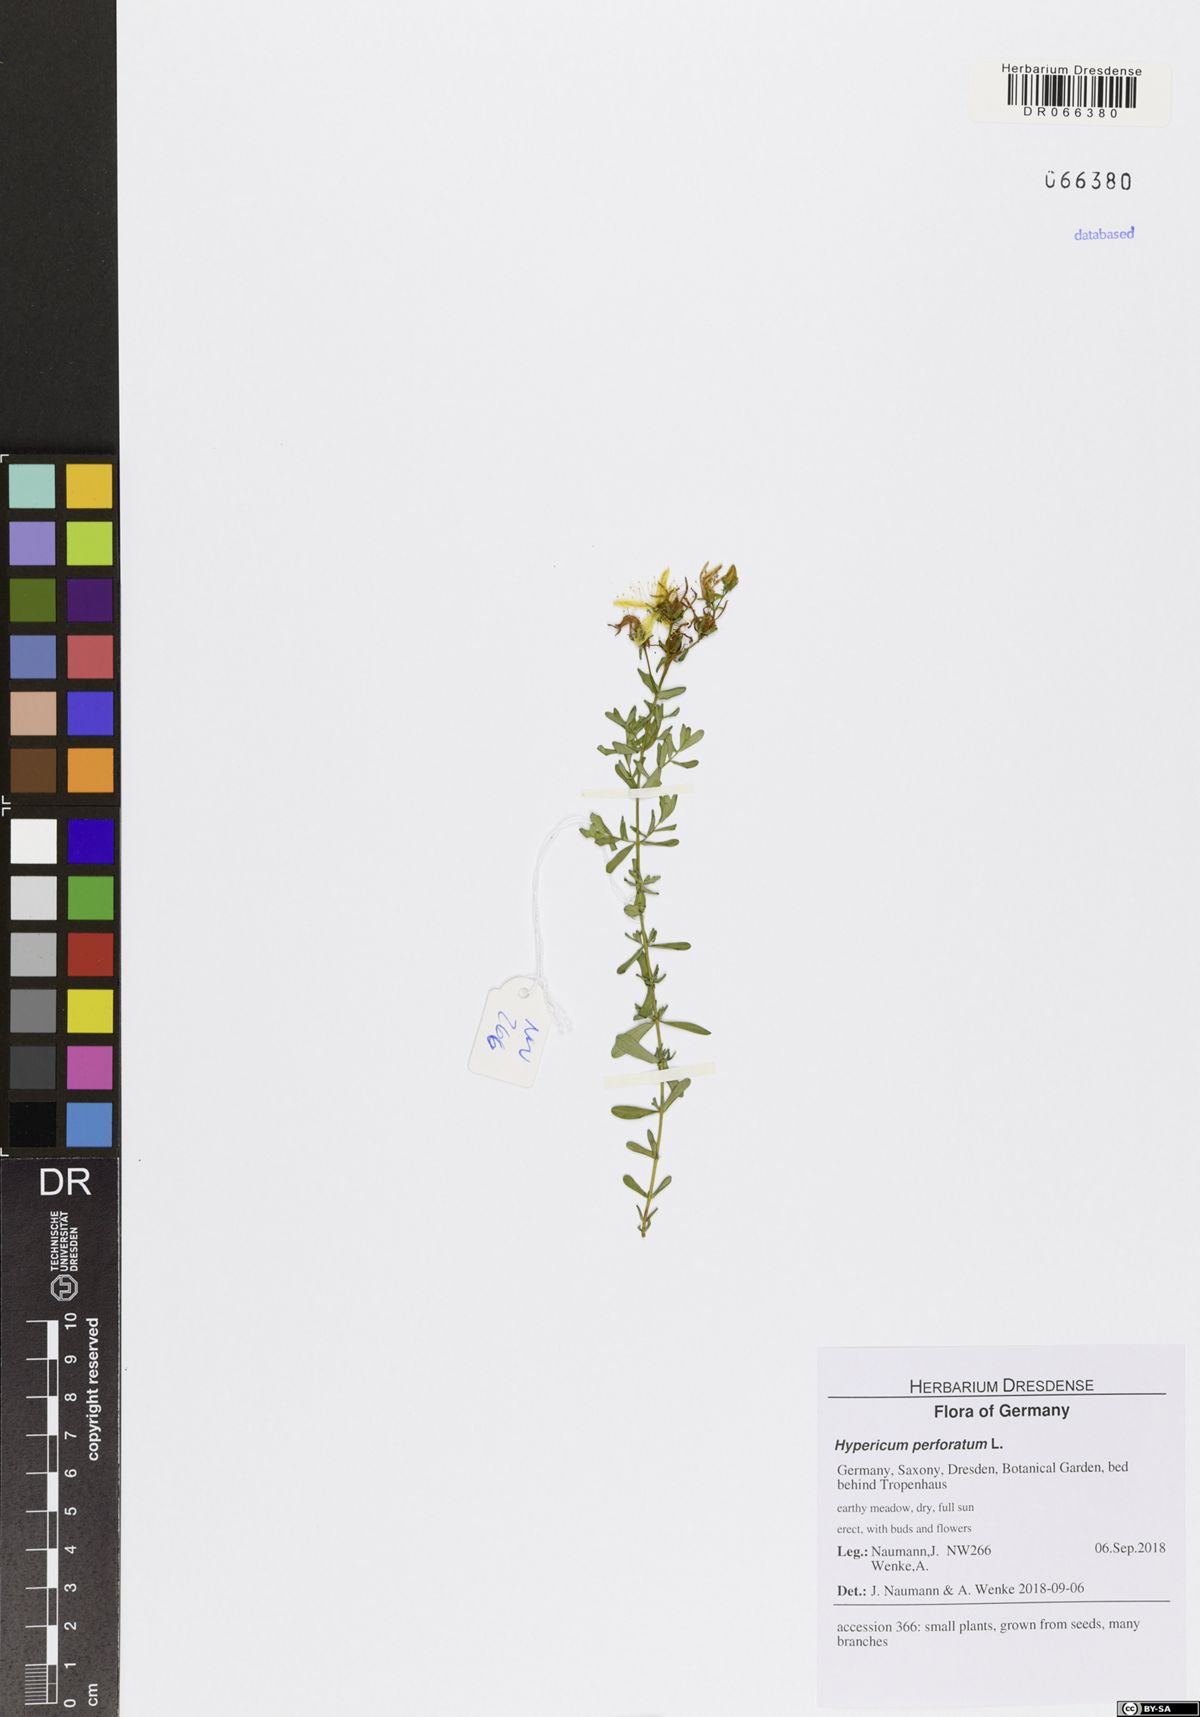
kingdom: Plantae
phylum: Tracheophyta
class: Magnoliopsida
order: Malpighiales
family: Hypericaceae
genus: Hypericum
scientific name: Hypericum perforatum
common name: Common st. johnswort
